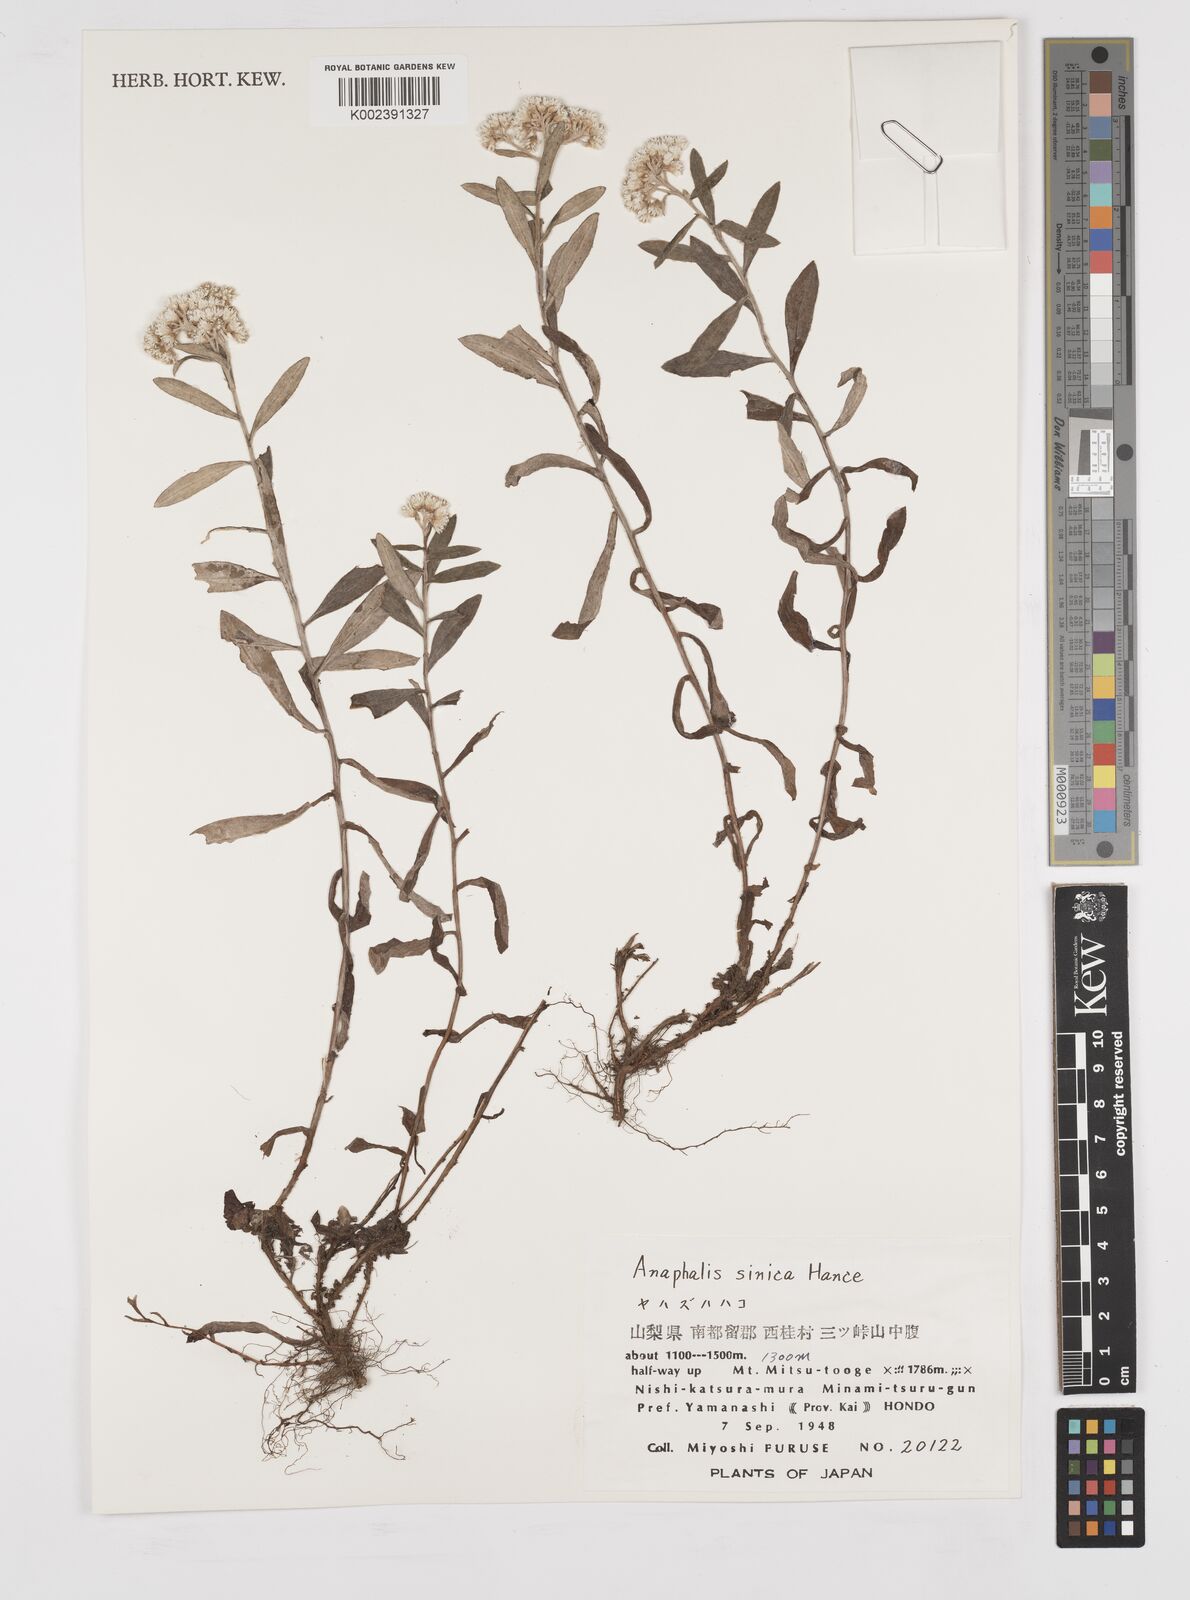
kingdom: Plantae
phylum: Tracheophyta
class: Magnoliopsida
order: Asterales
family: Asteraceae
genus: Anaphalis
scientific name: Anaphalis sinica
